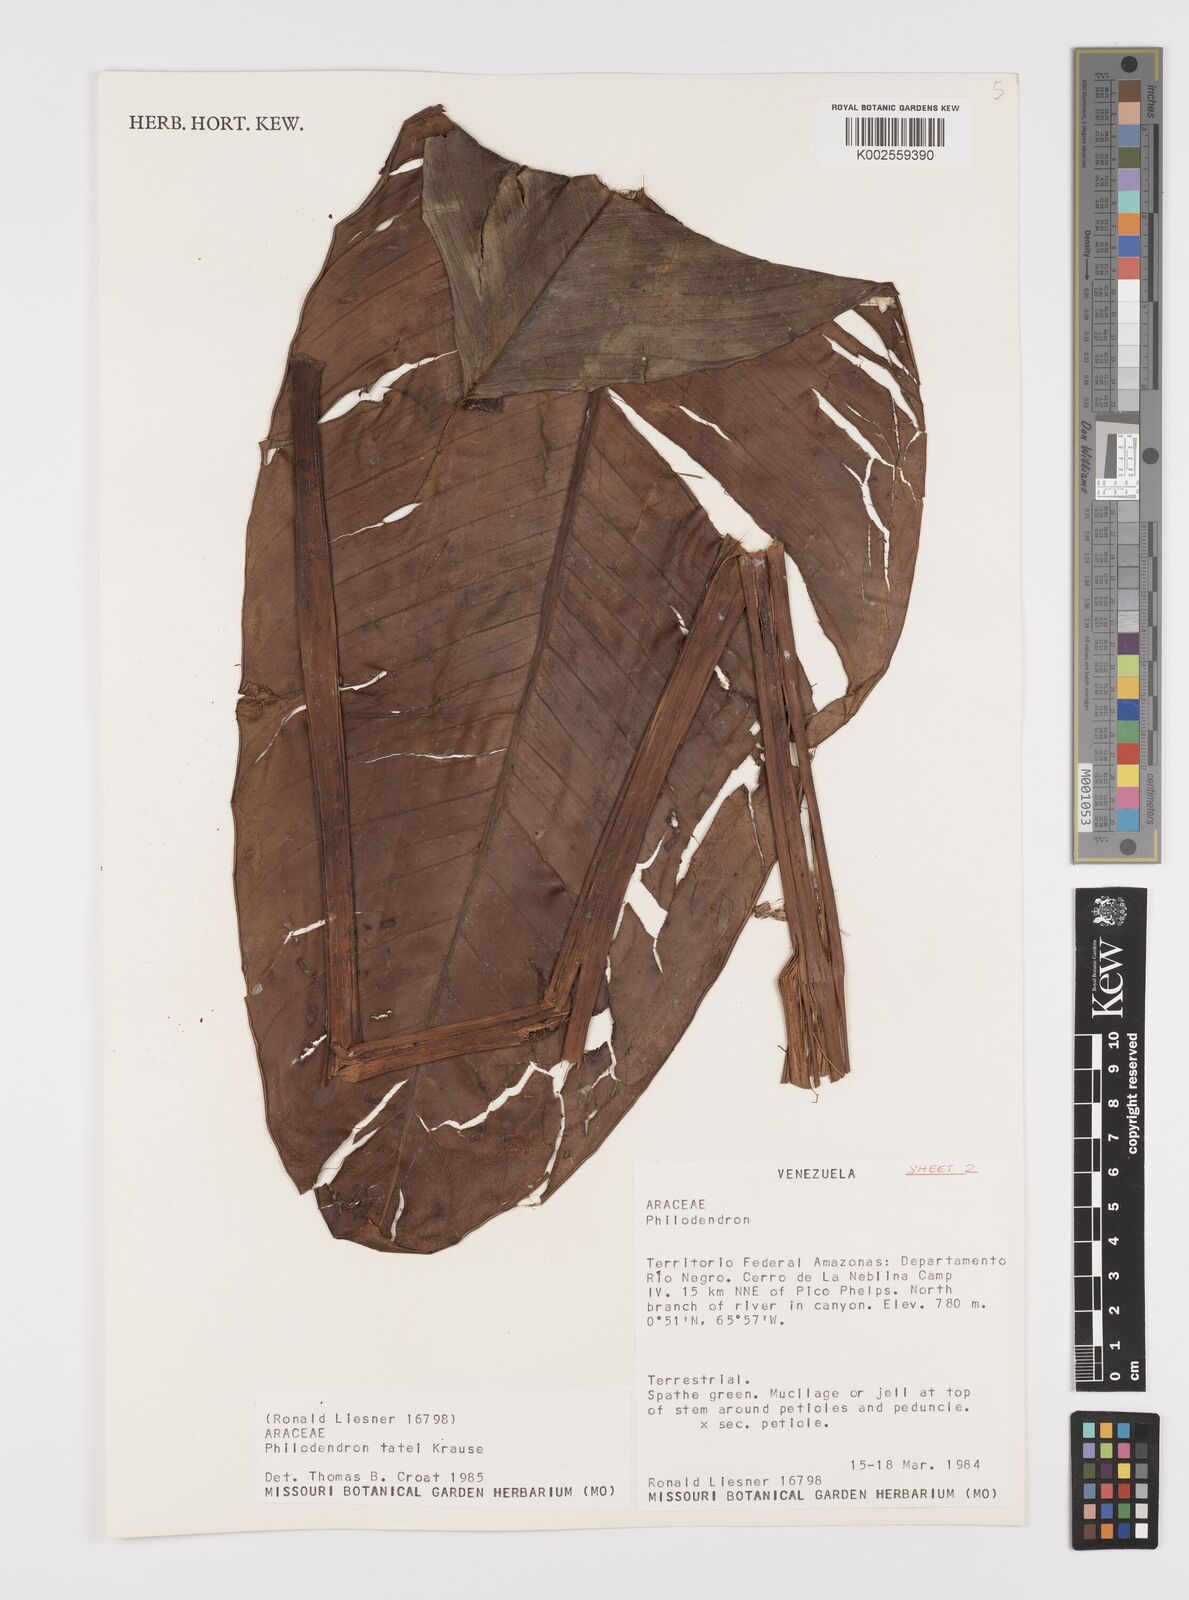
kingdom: Plantae
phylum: Tracheophyta
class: Liliopsida
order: Alismatales
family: Araceae
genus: Philodendron
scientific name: Philodendron tatei
